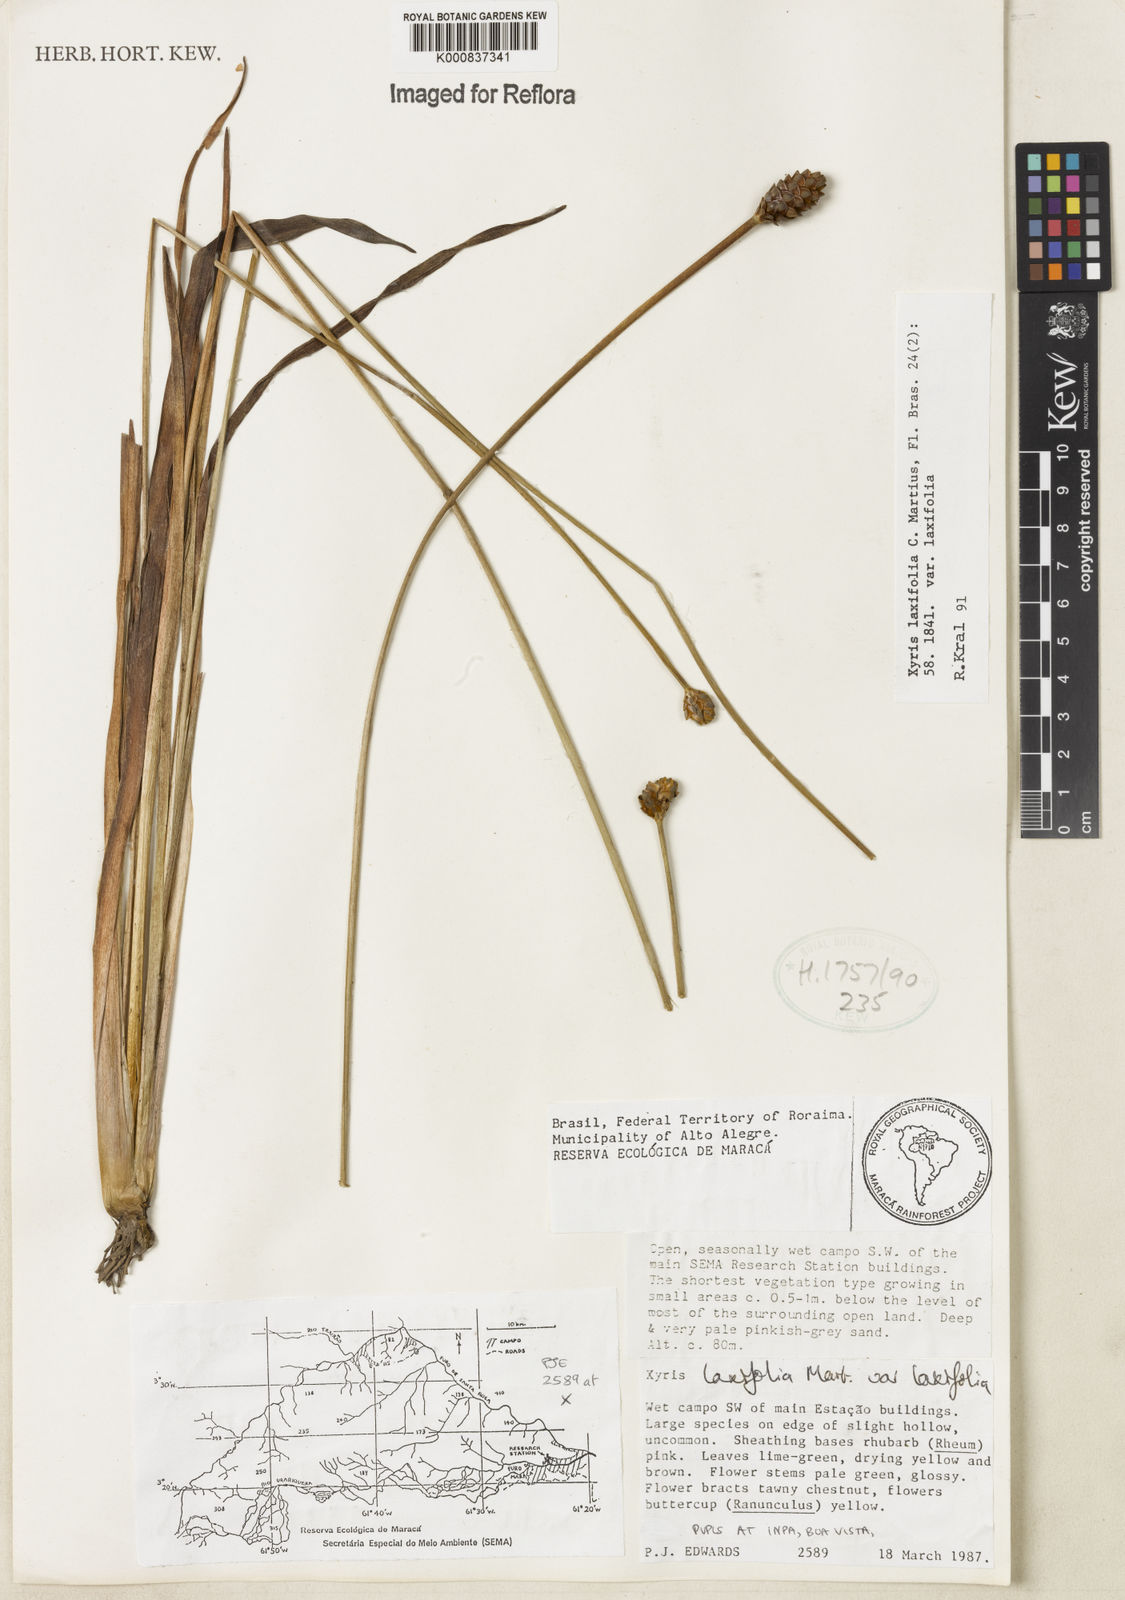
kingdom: Plantae
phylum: Tracheophyta
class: Liliopsida
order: Poales
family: Xyridaceae
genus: Xyris
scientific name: Xyris laxifolia
